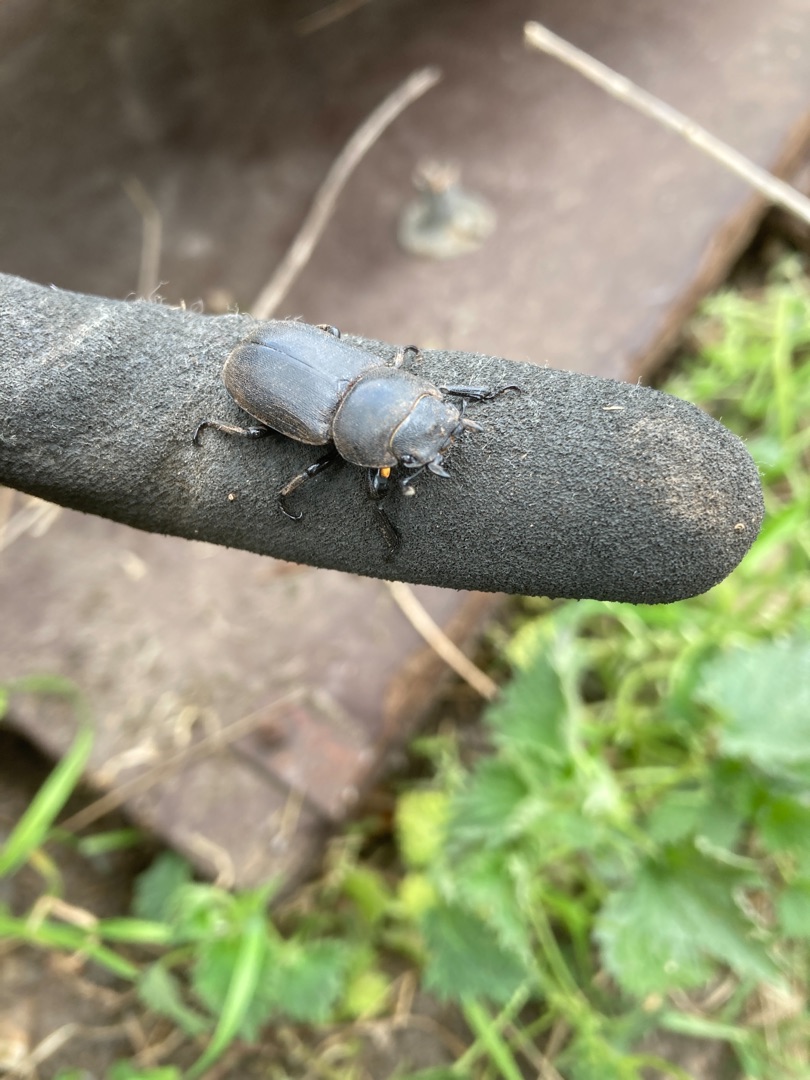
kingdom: Animalia
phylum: Arthropoda
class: Insecta
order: Coleoptera
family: Lucanidae
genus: Dorcus
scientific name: Dorcus parallelipipedus
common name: Bøghjort
